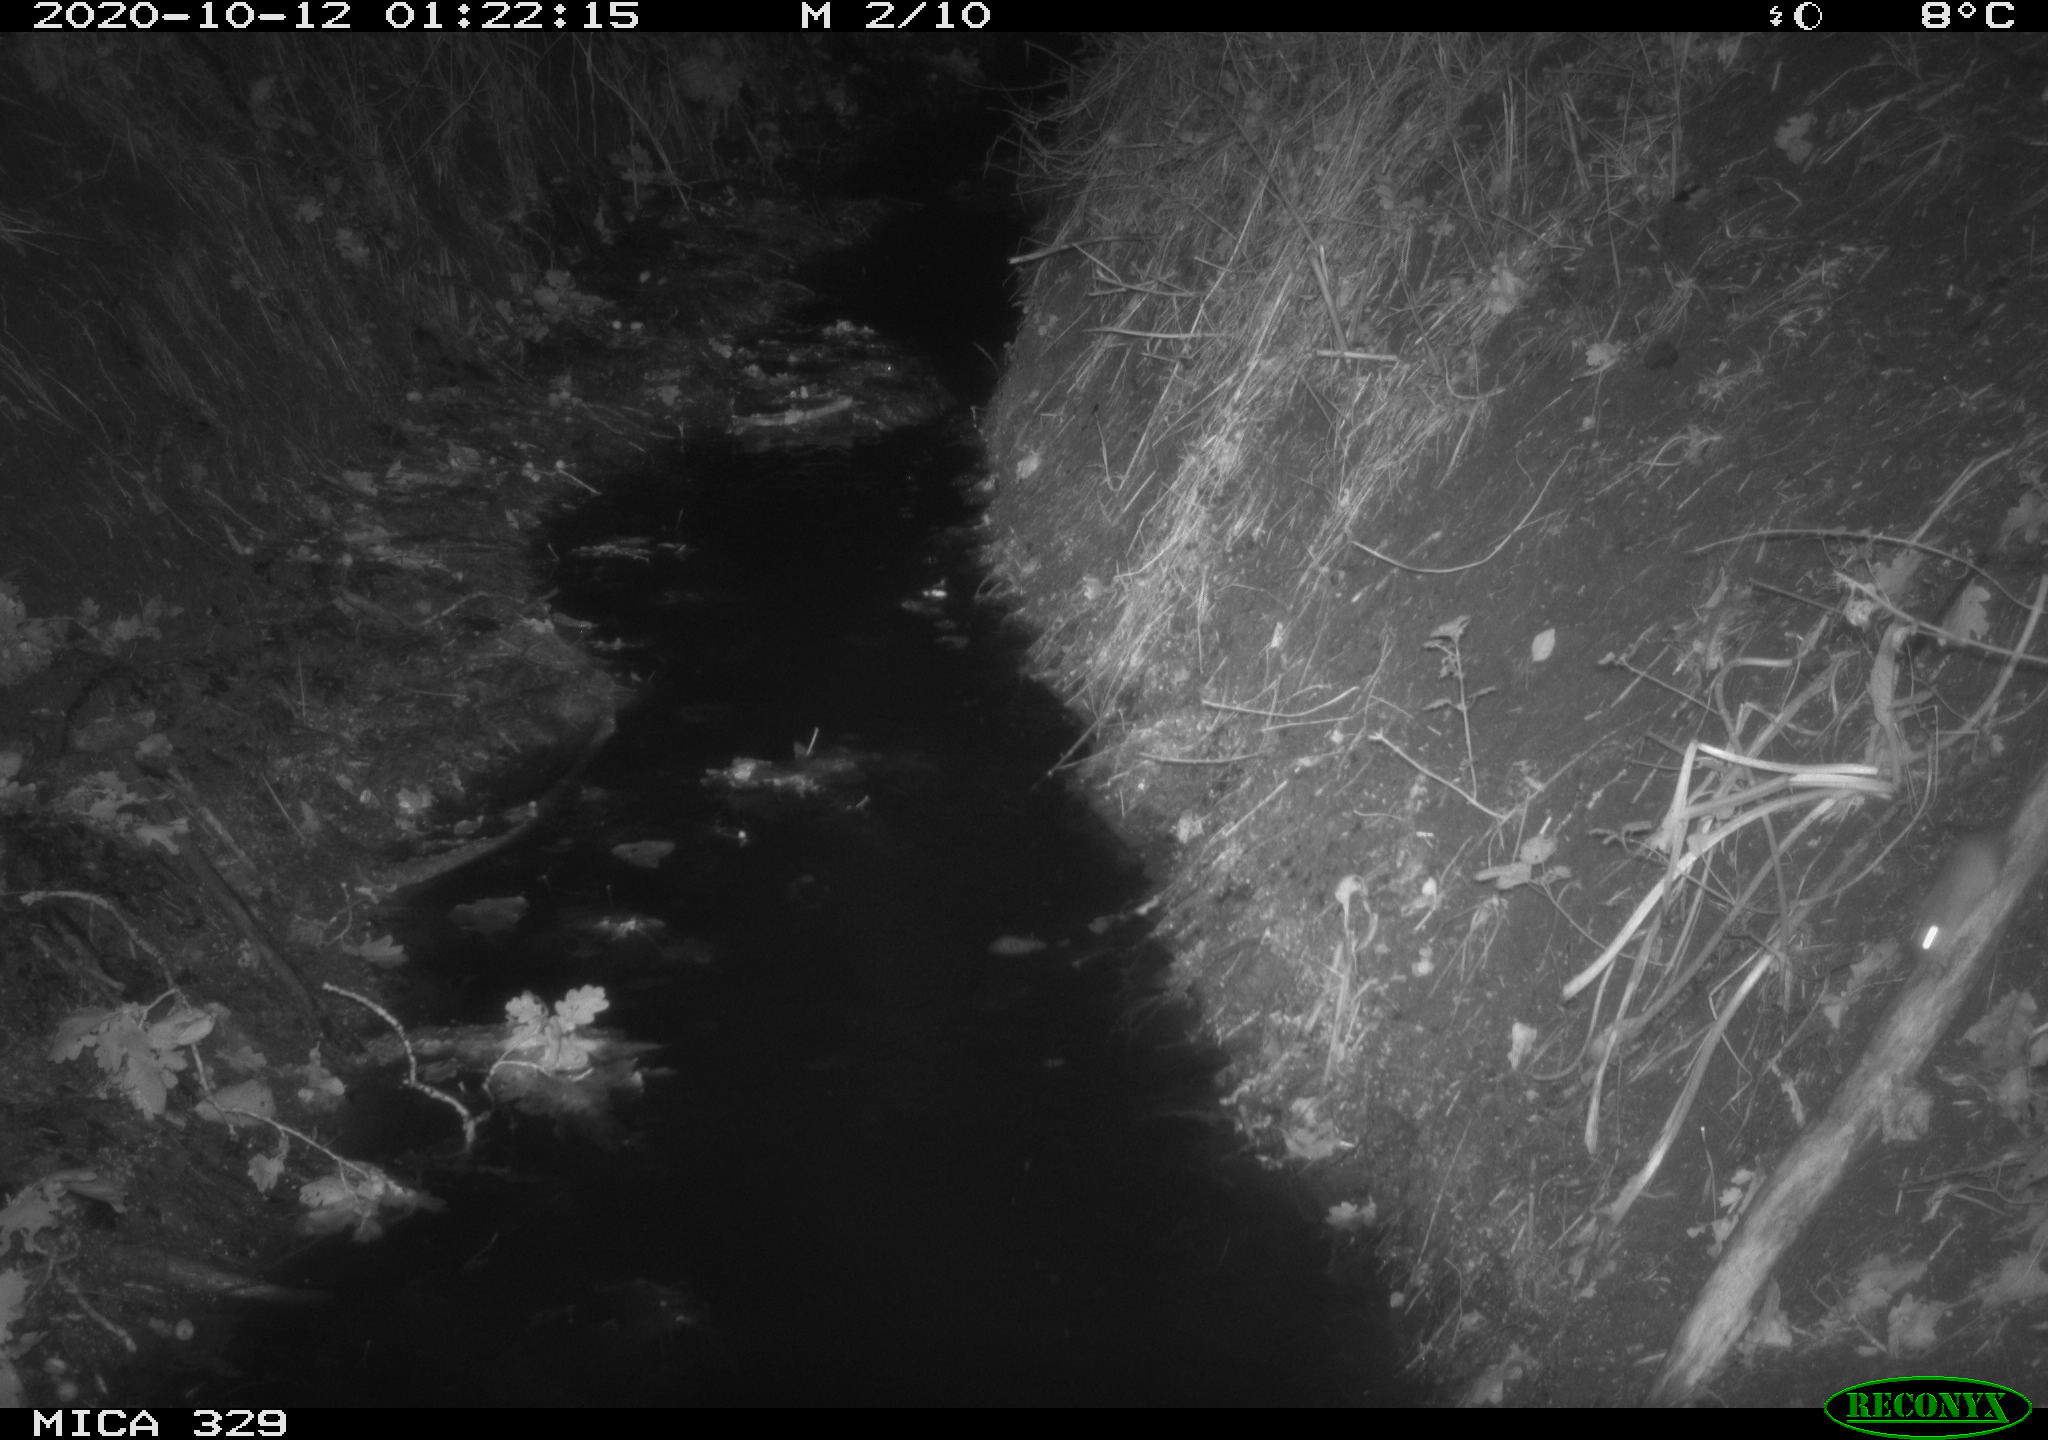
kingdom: Animalia
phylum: Chordata
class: Mammalia
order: Rodentia
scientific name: Rodentia
